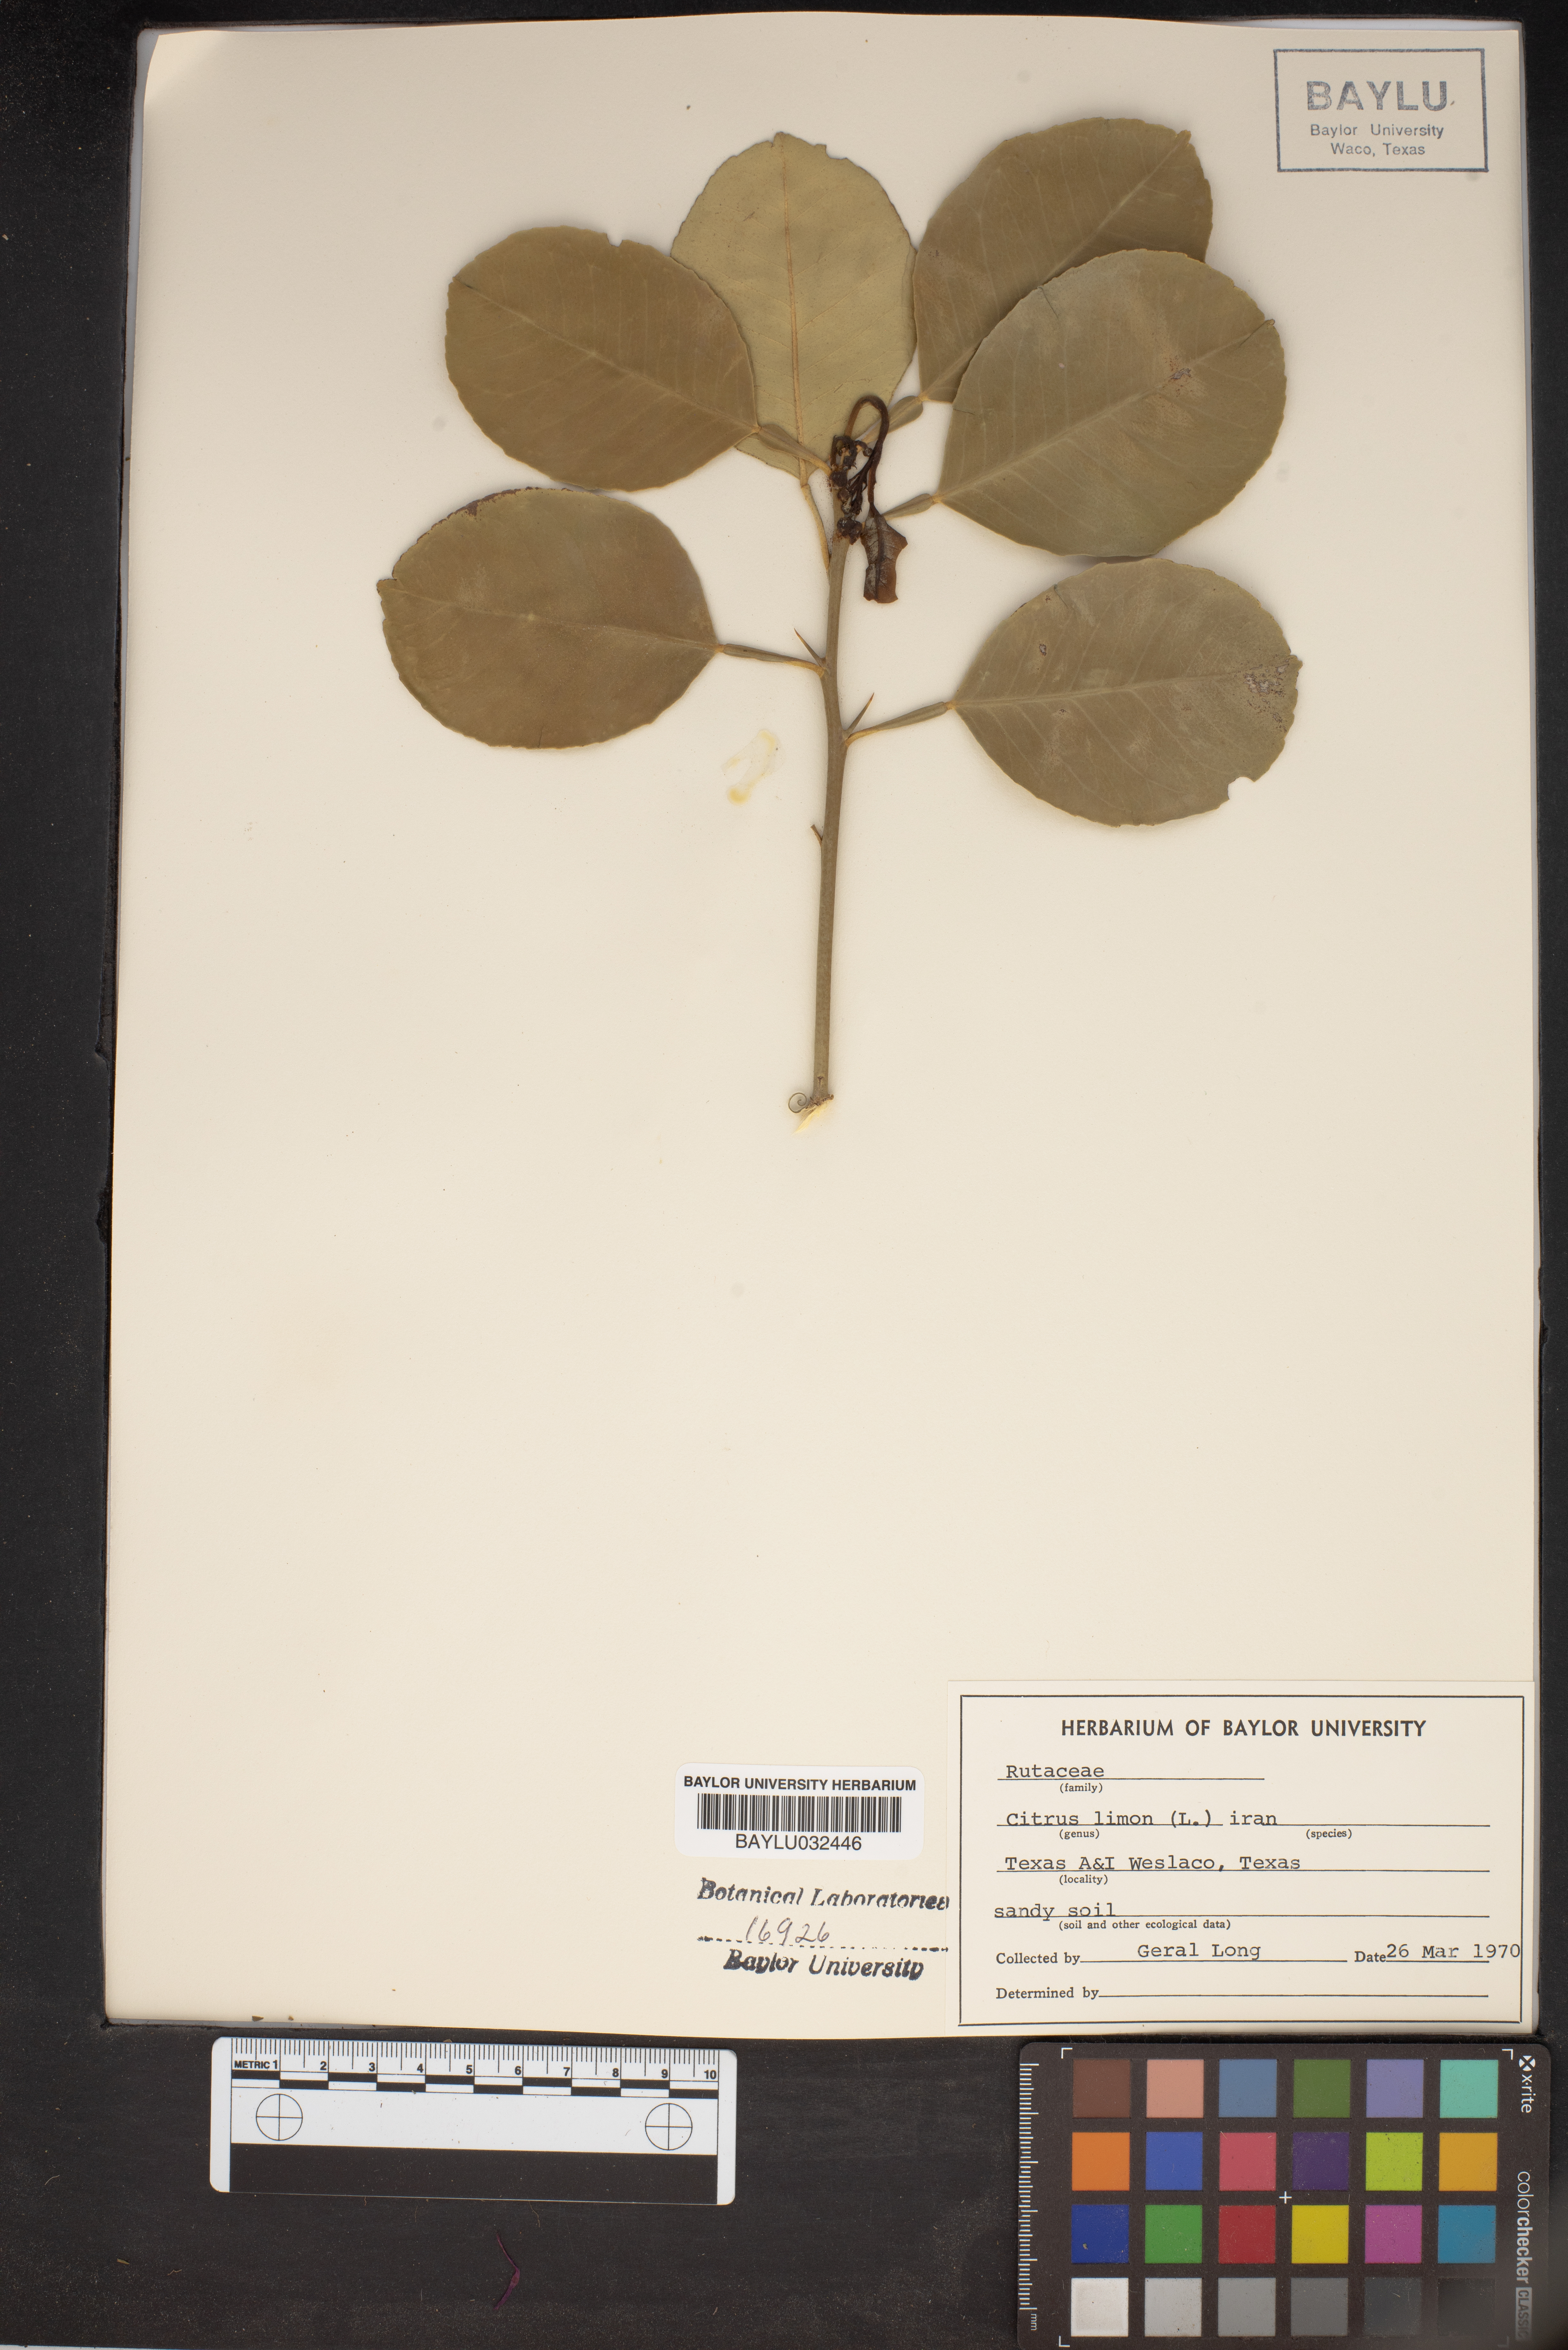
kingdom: Plantae
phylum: Tracheophyta
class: Magnoliopsida
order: Sapindales
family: Rutaceae
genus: Citrus
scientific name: Citrus limon
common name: Lemon
